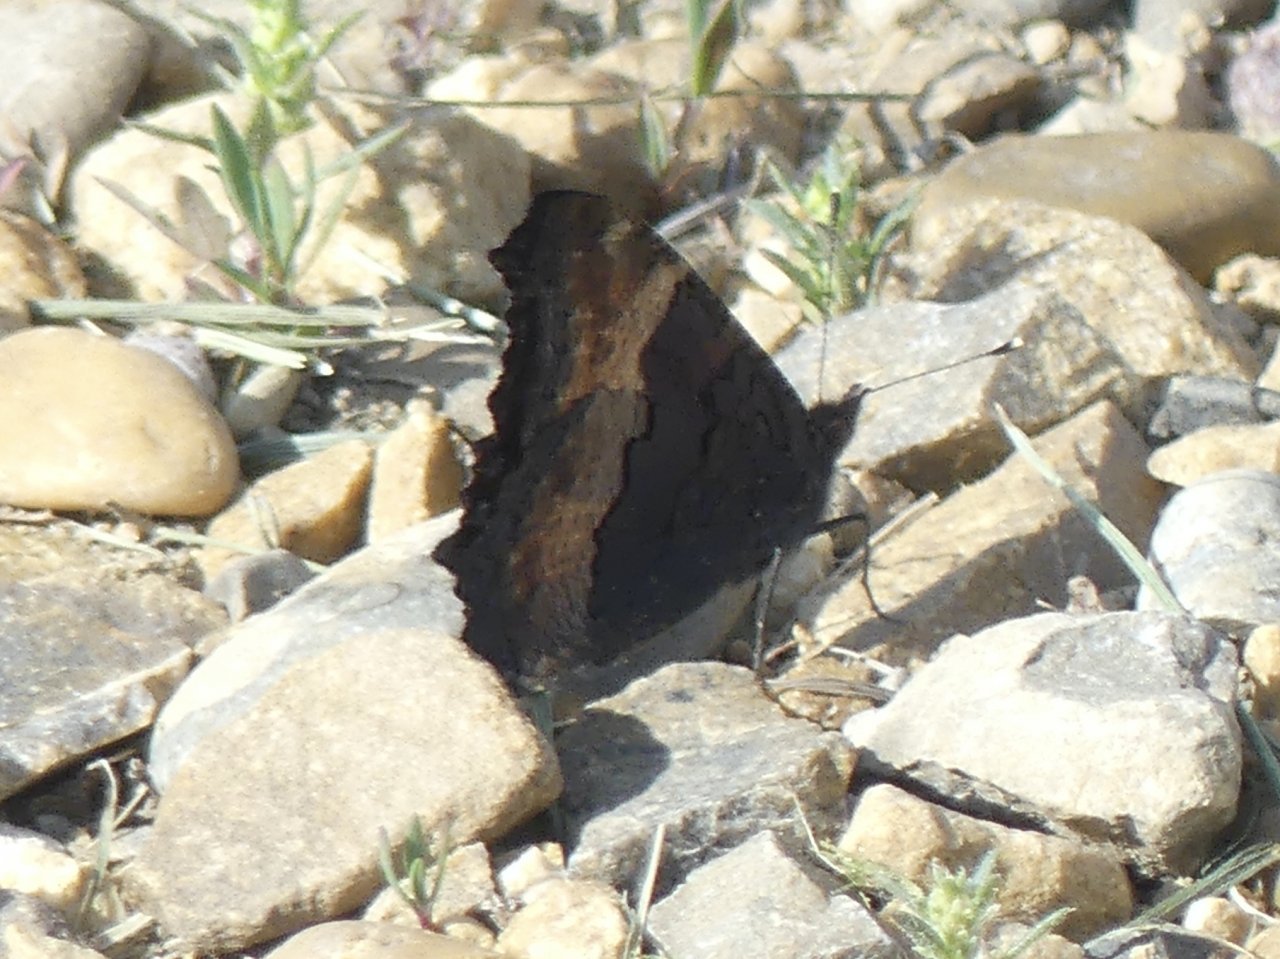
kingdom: Animalia
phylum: Arthropoda
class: Insecta
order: Lepidoptera
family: Nymphalidae
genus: Aglais
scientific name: Aglais milberti
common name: Milbert's Tortoiseshell
